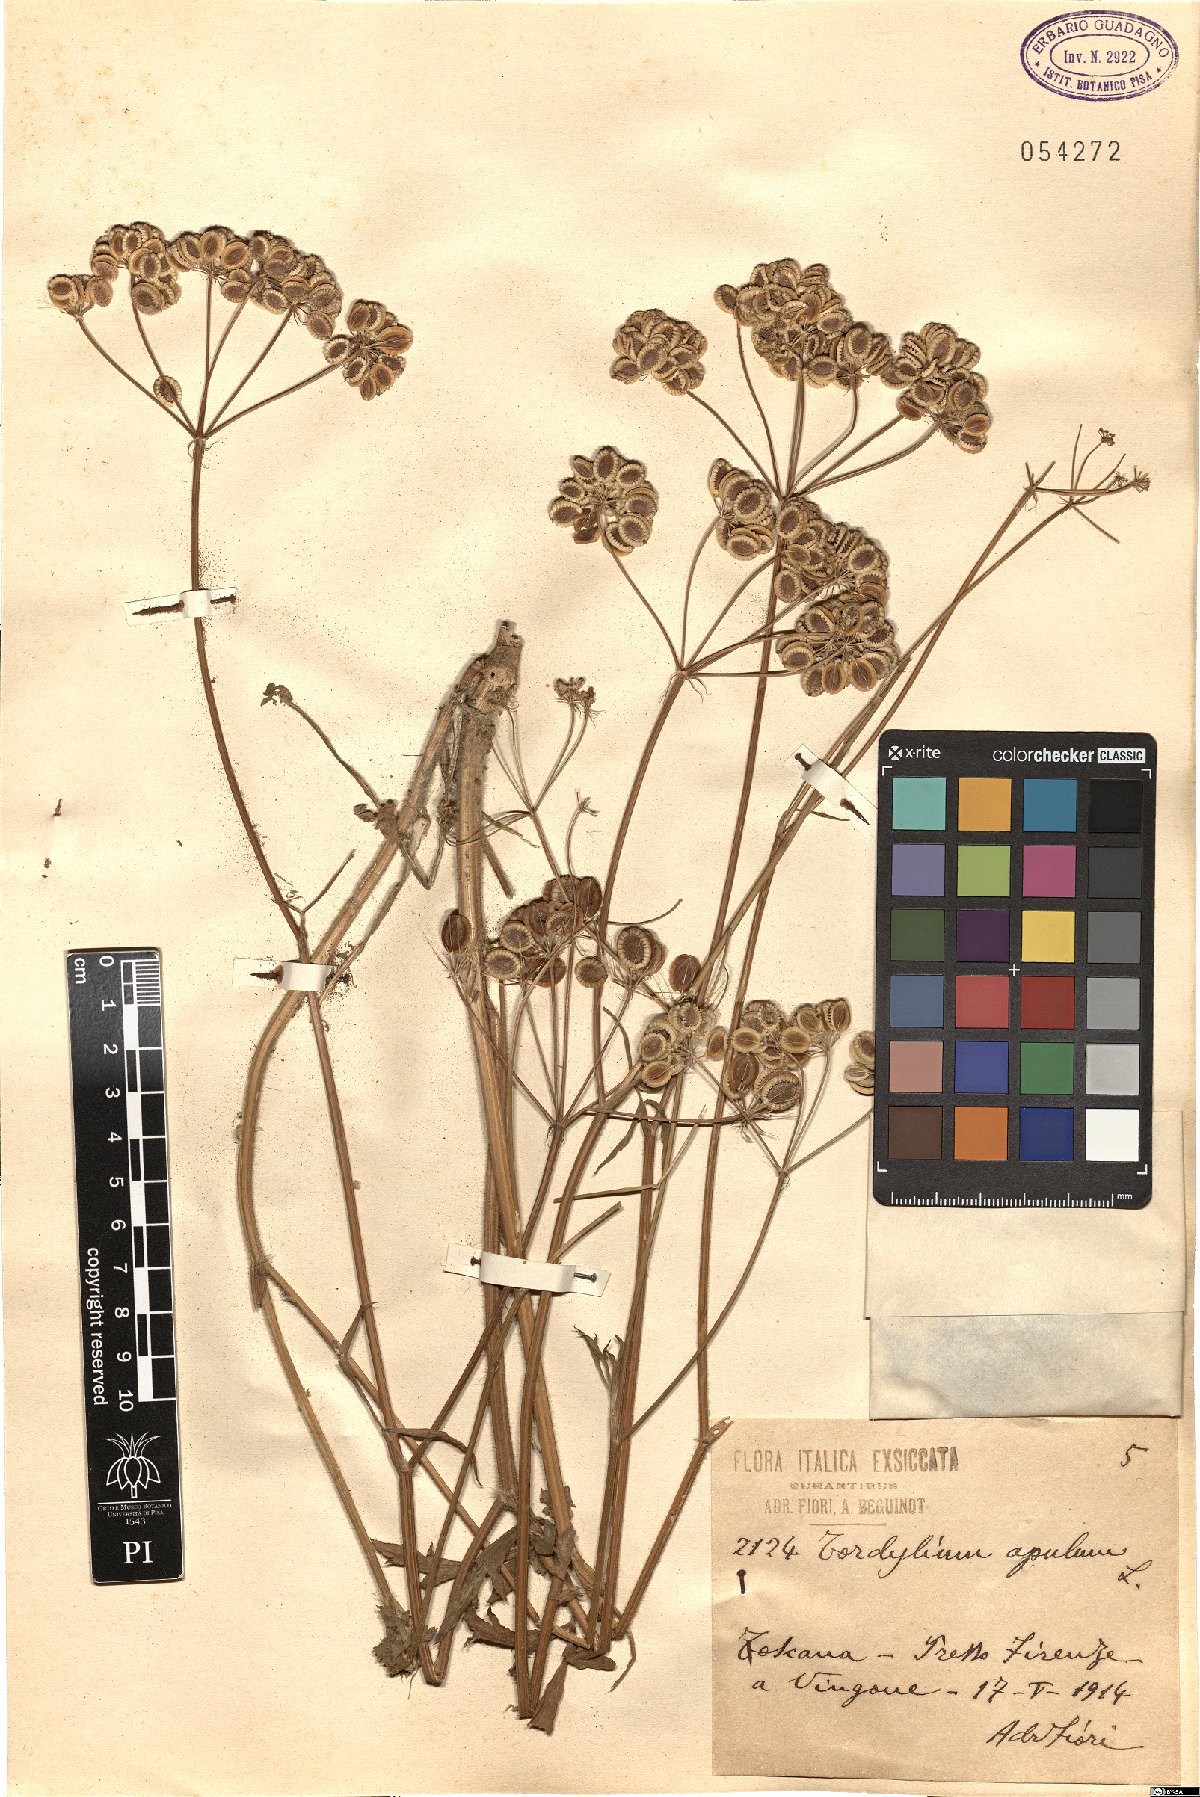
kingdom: Plantae
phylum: Tracheophyta
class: Magnoliopsida
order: Apiales
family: Apiaceae
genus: Tordylium
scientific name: Tordylium apulum
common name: Mediterranean hartwort
